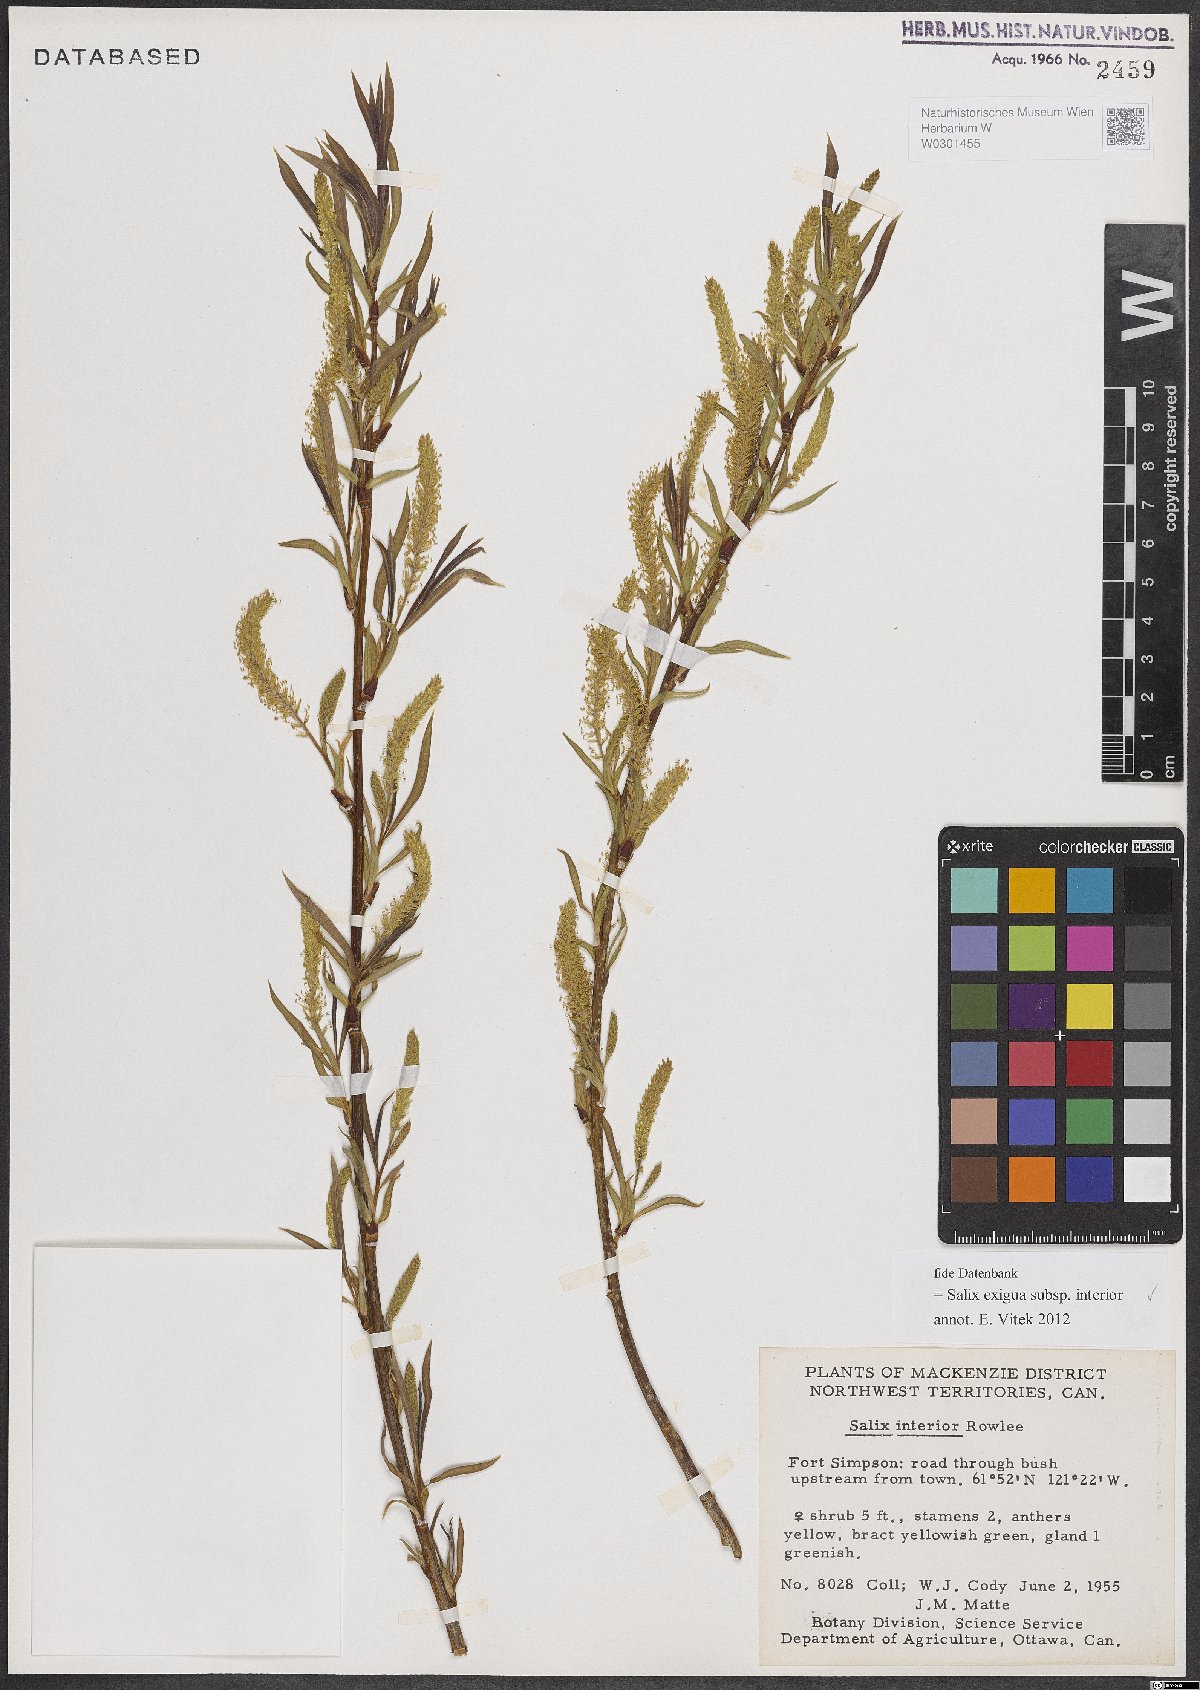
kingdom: Plantae
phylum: Tracheophyta
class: Magnoliopsida
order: Malpighiales
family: Salicaceae
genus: Salix
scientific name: Salix interior
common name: Sandbar willow
